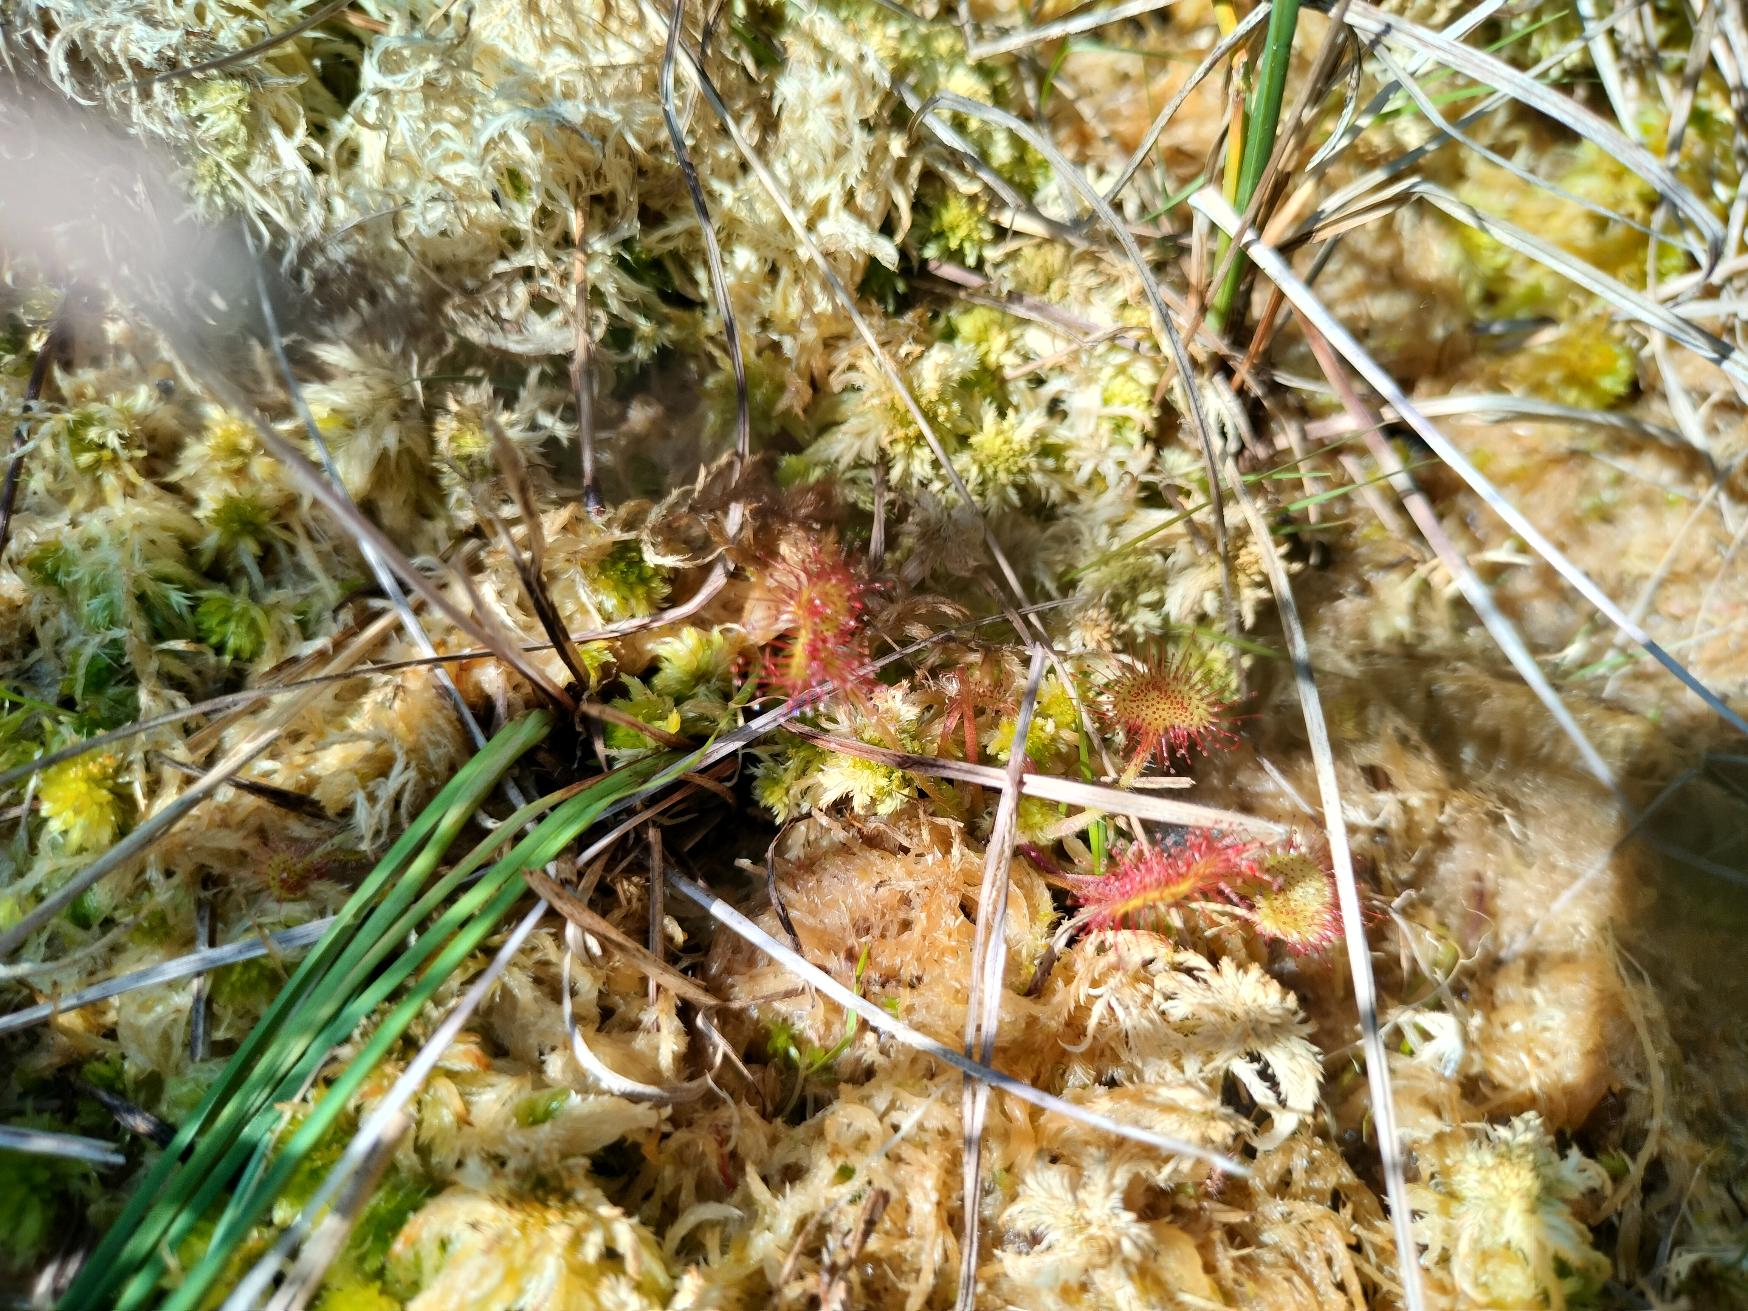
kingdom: Plantae
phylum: Tracheophyta
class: Magnoliopsida
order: Caryophyllales
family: Droseraceae
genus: Drosera
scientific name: Drosera rotundifolia
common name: Rundbladet soldug
